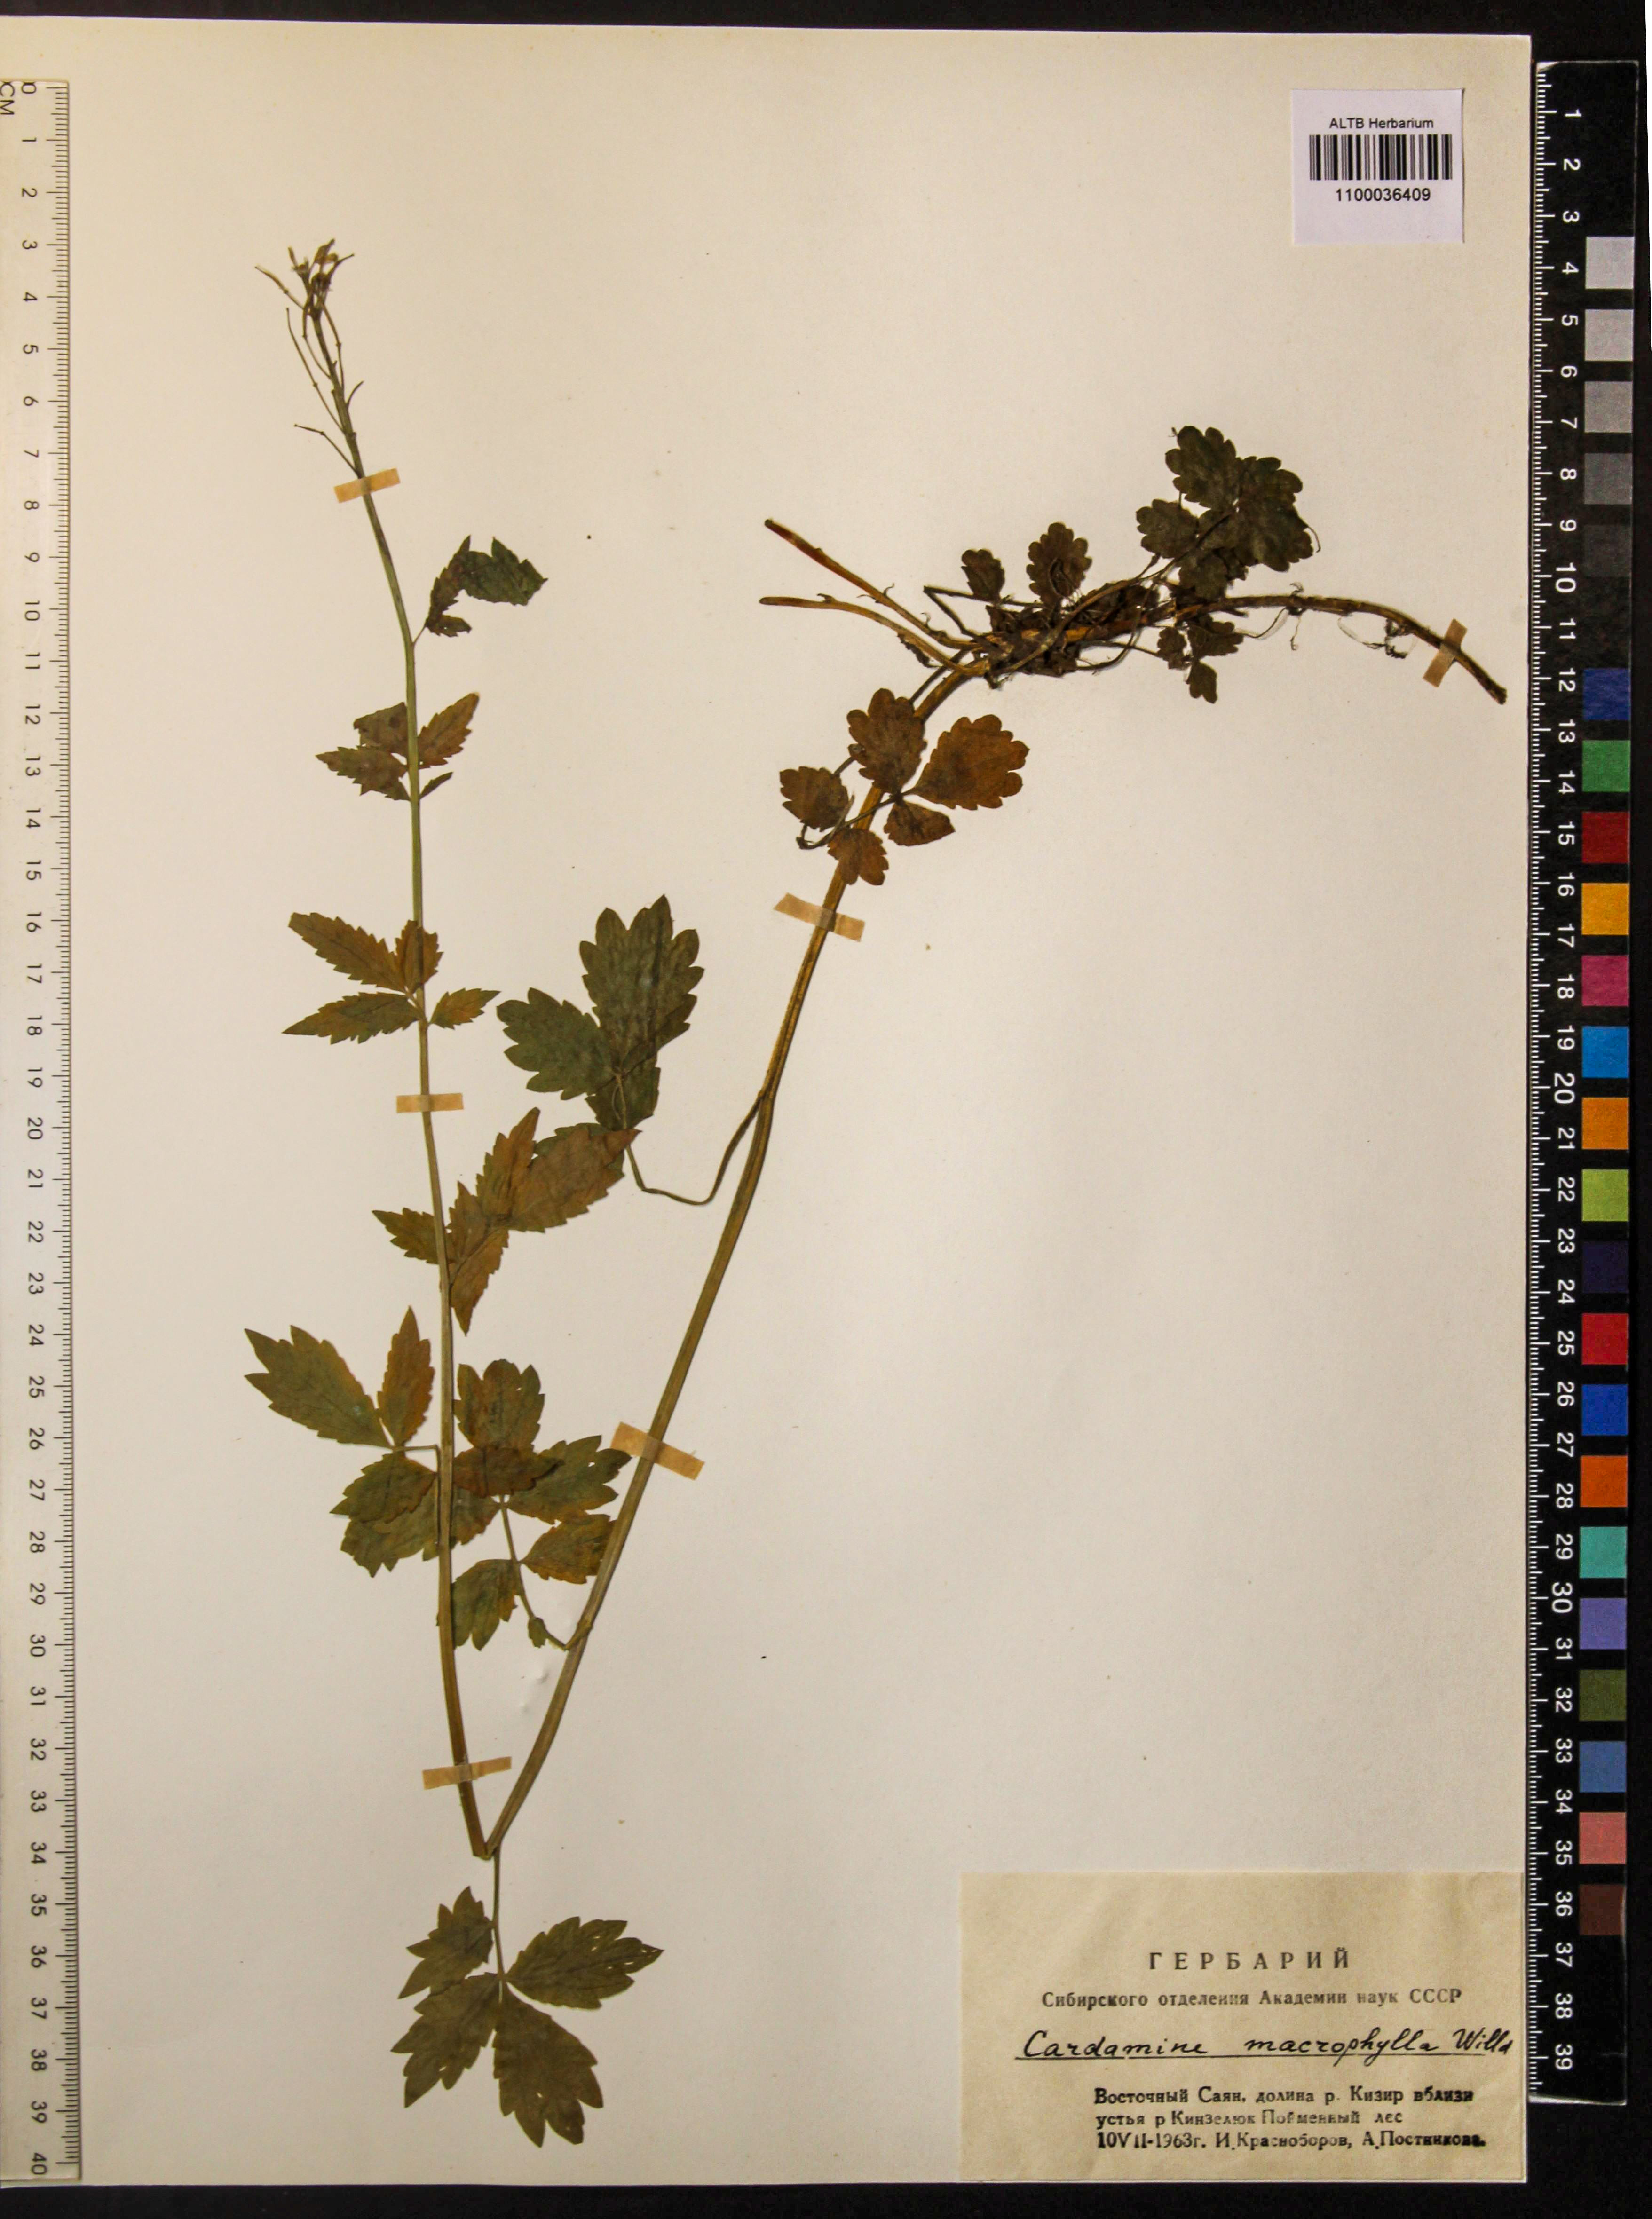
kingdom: Plantae
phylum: Tracheophyta
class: Magnoliopsida
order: Brassicales
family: Brassicaceae
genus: Cardamine
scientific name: Cardamine macrophylla
